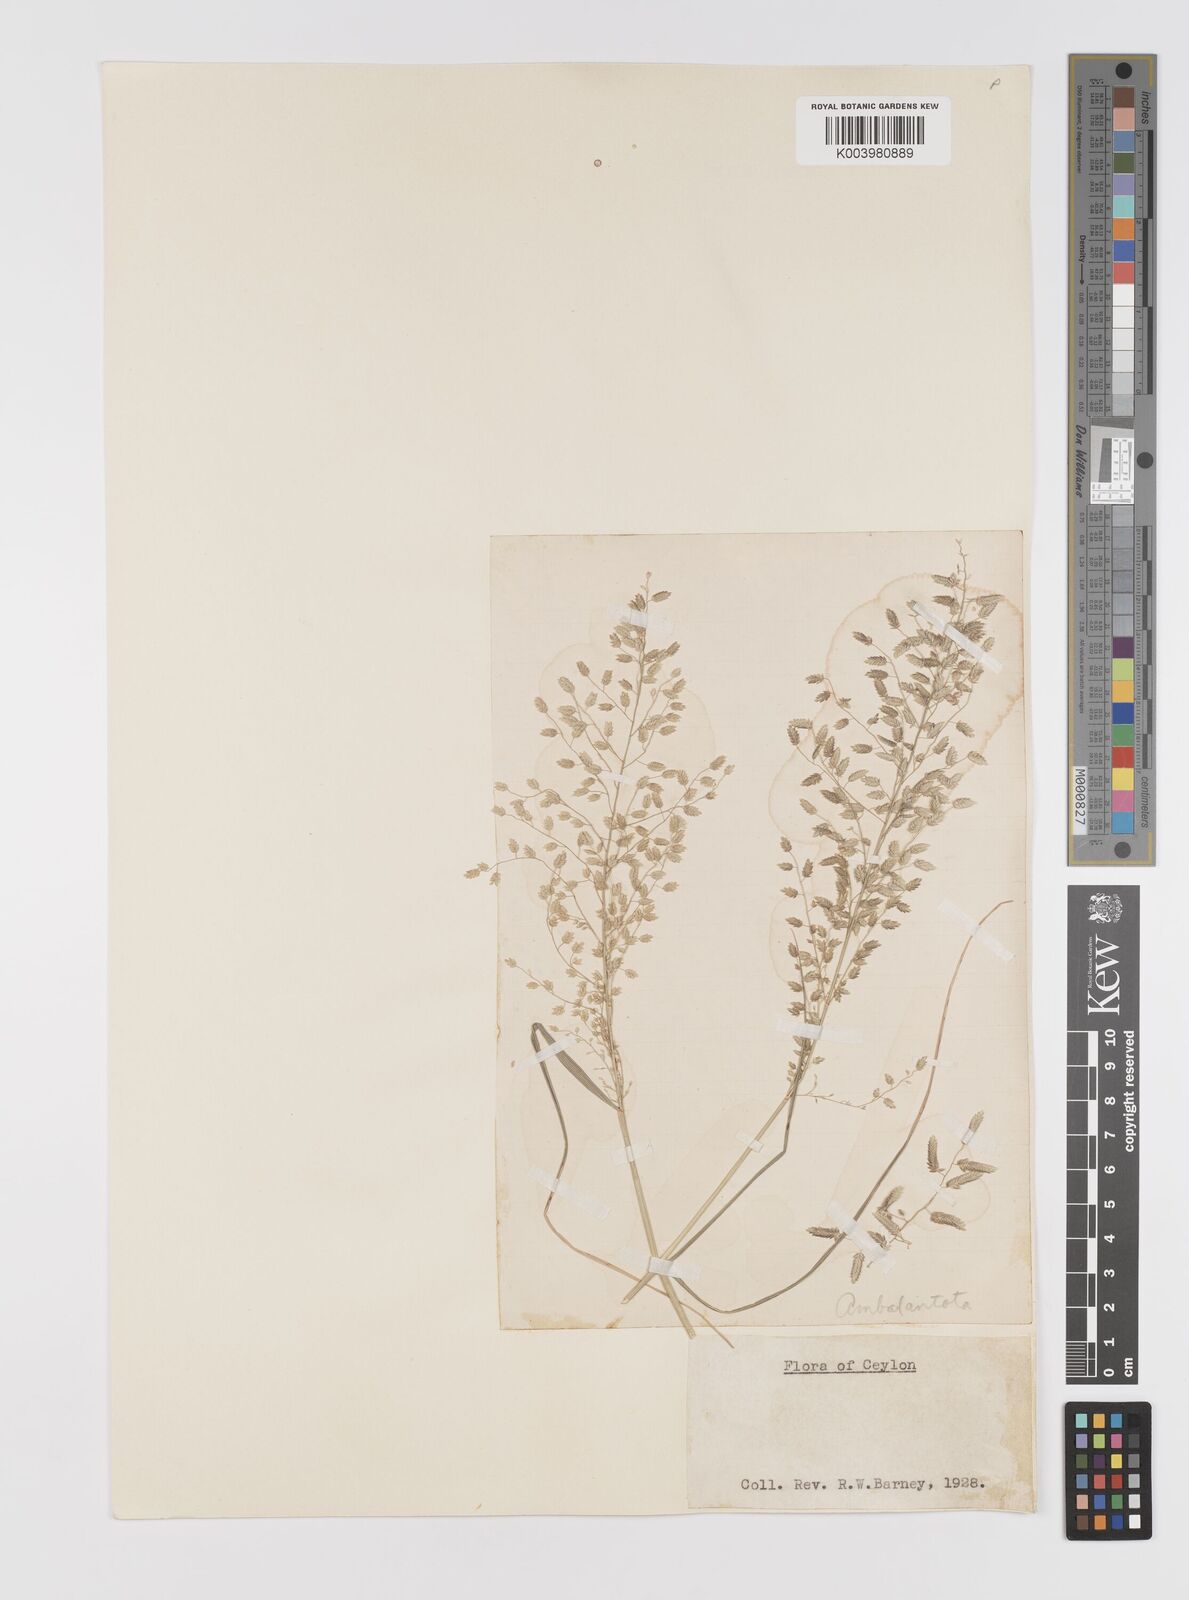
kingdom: Plantae
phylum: Tracheophyta
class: Liliopsida
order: Poales
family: Poaceae
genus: Eragrostis
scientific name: Eragrostis cilianensis
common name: Stinkgrass
